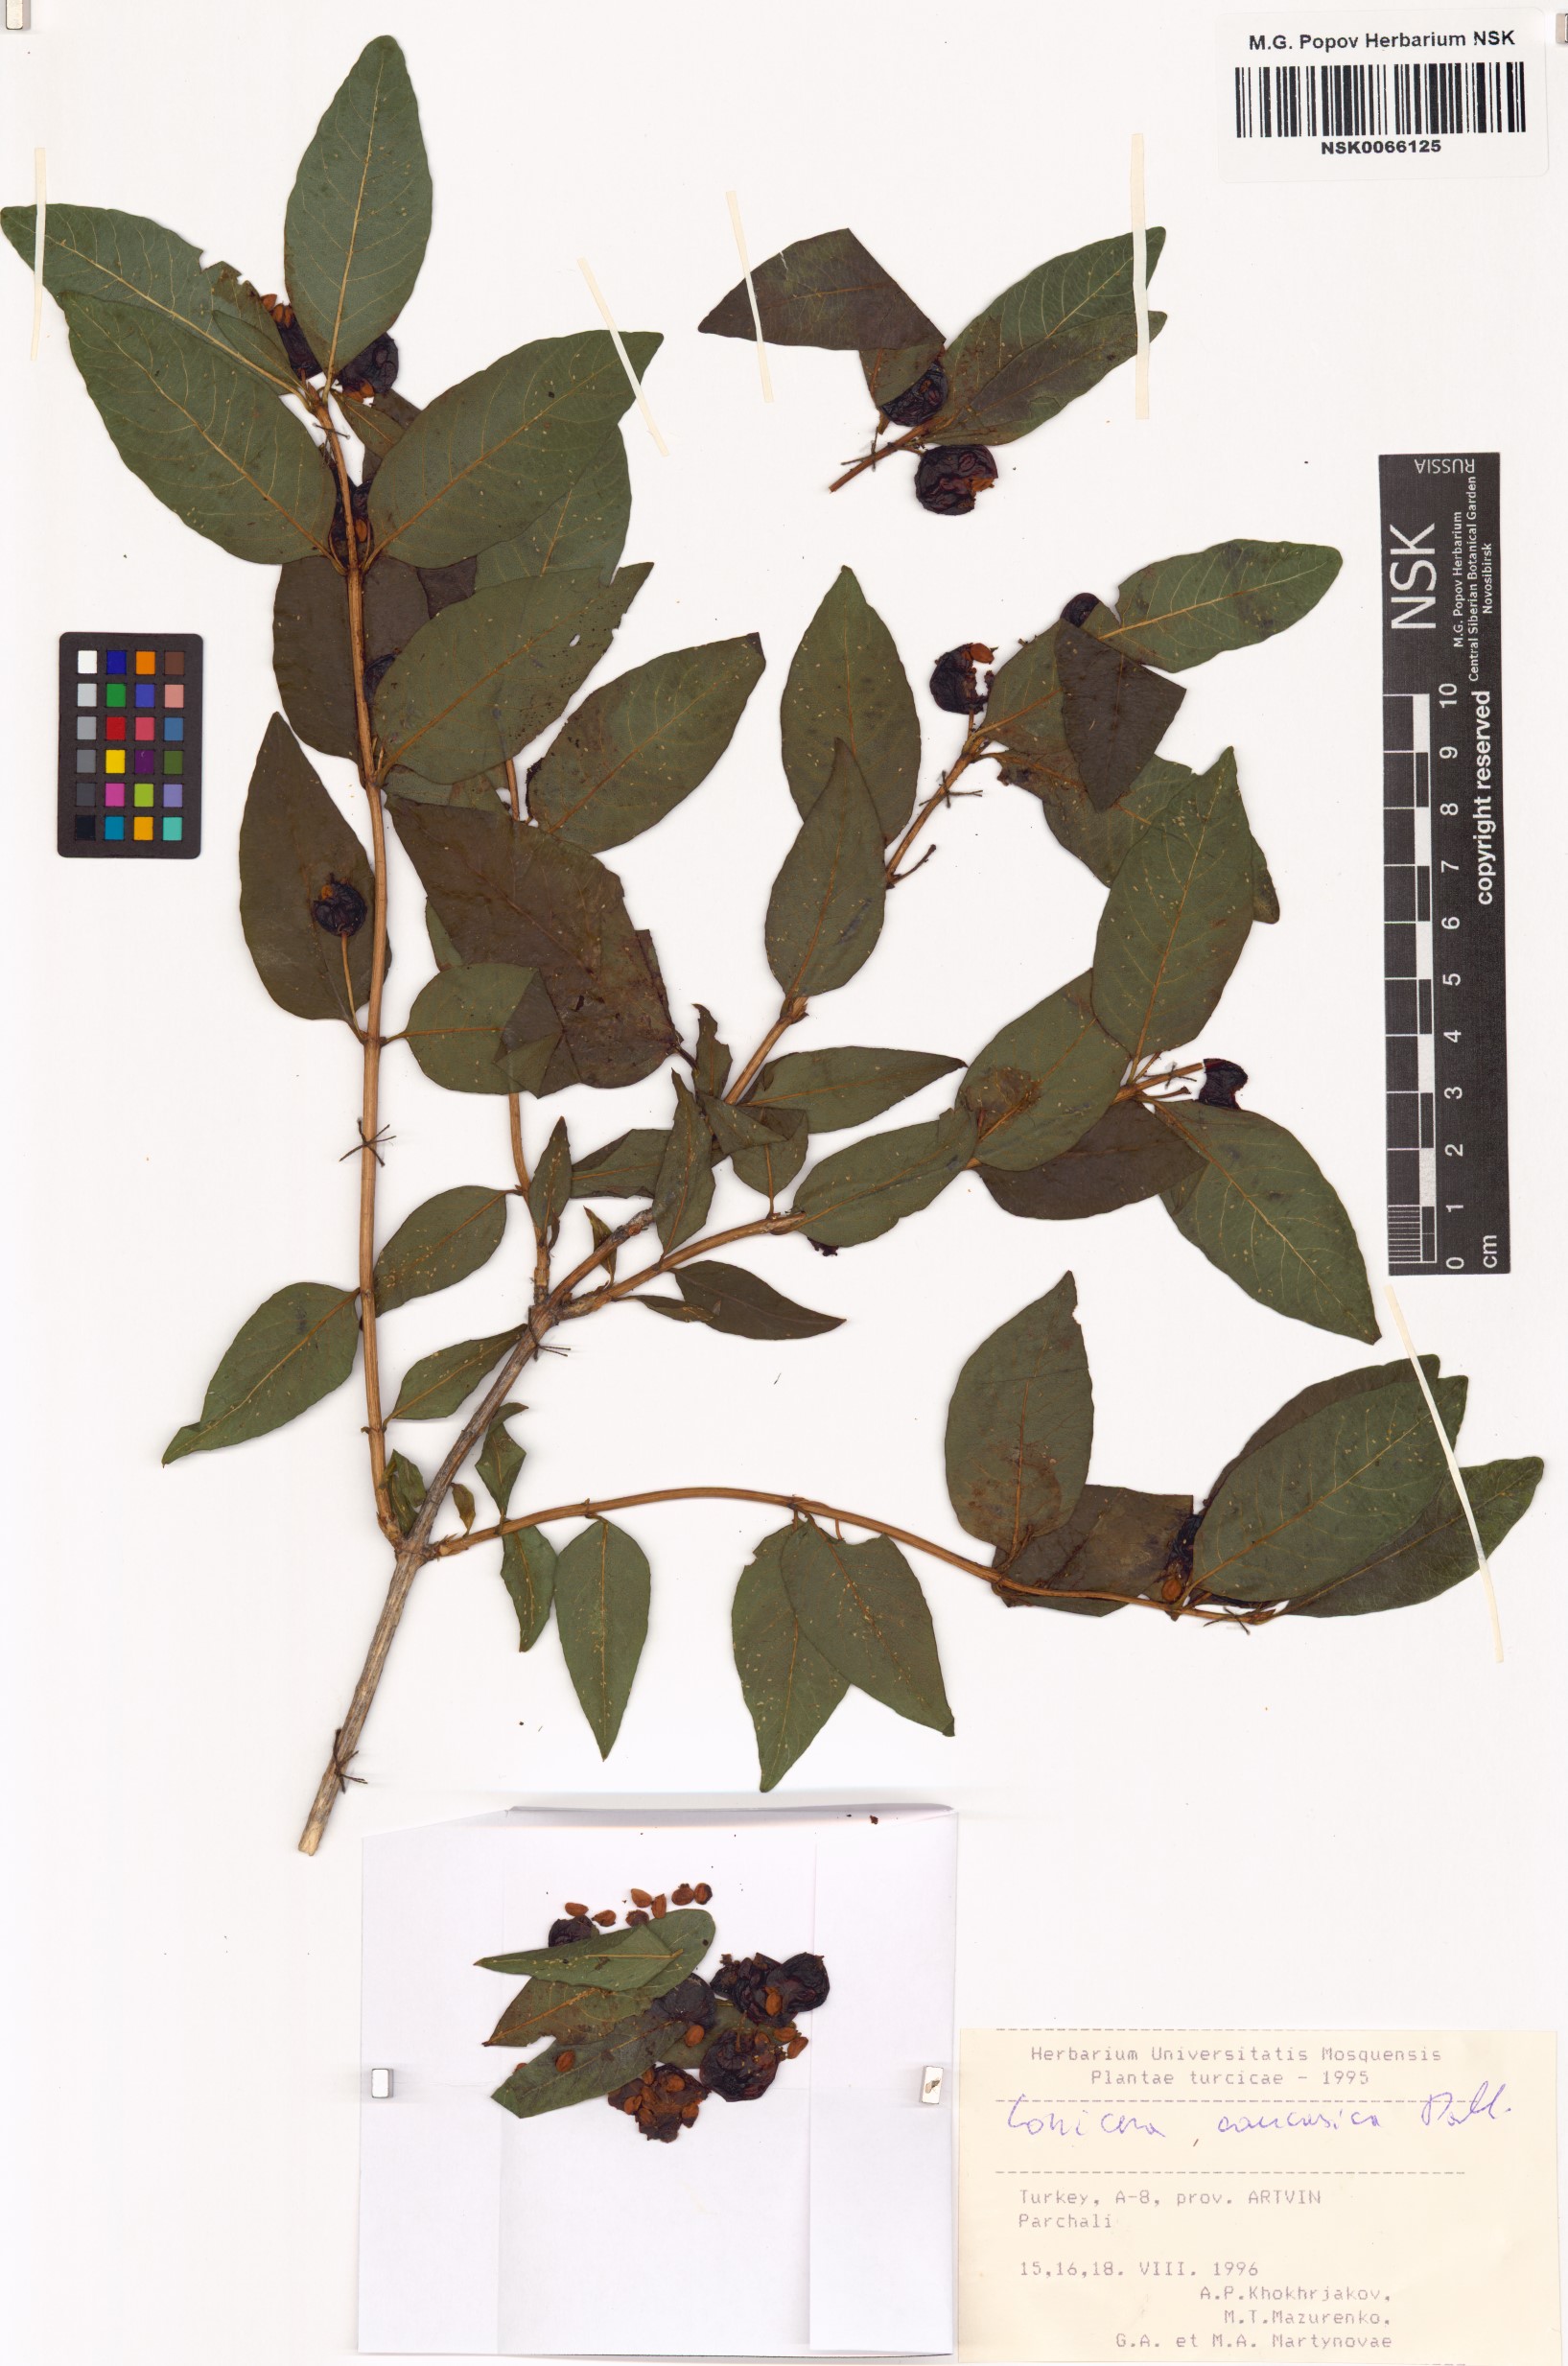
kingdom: Plantae
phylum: Tracheophyta
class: Magnoliopsida
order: Dipsacales
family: Caprifoliaceae
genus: Lonicera
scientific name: Lonicera caucasica
